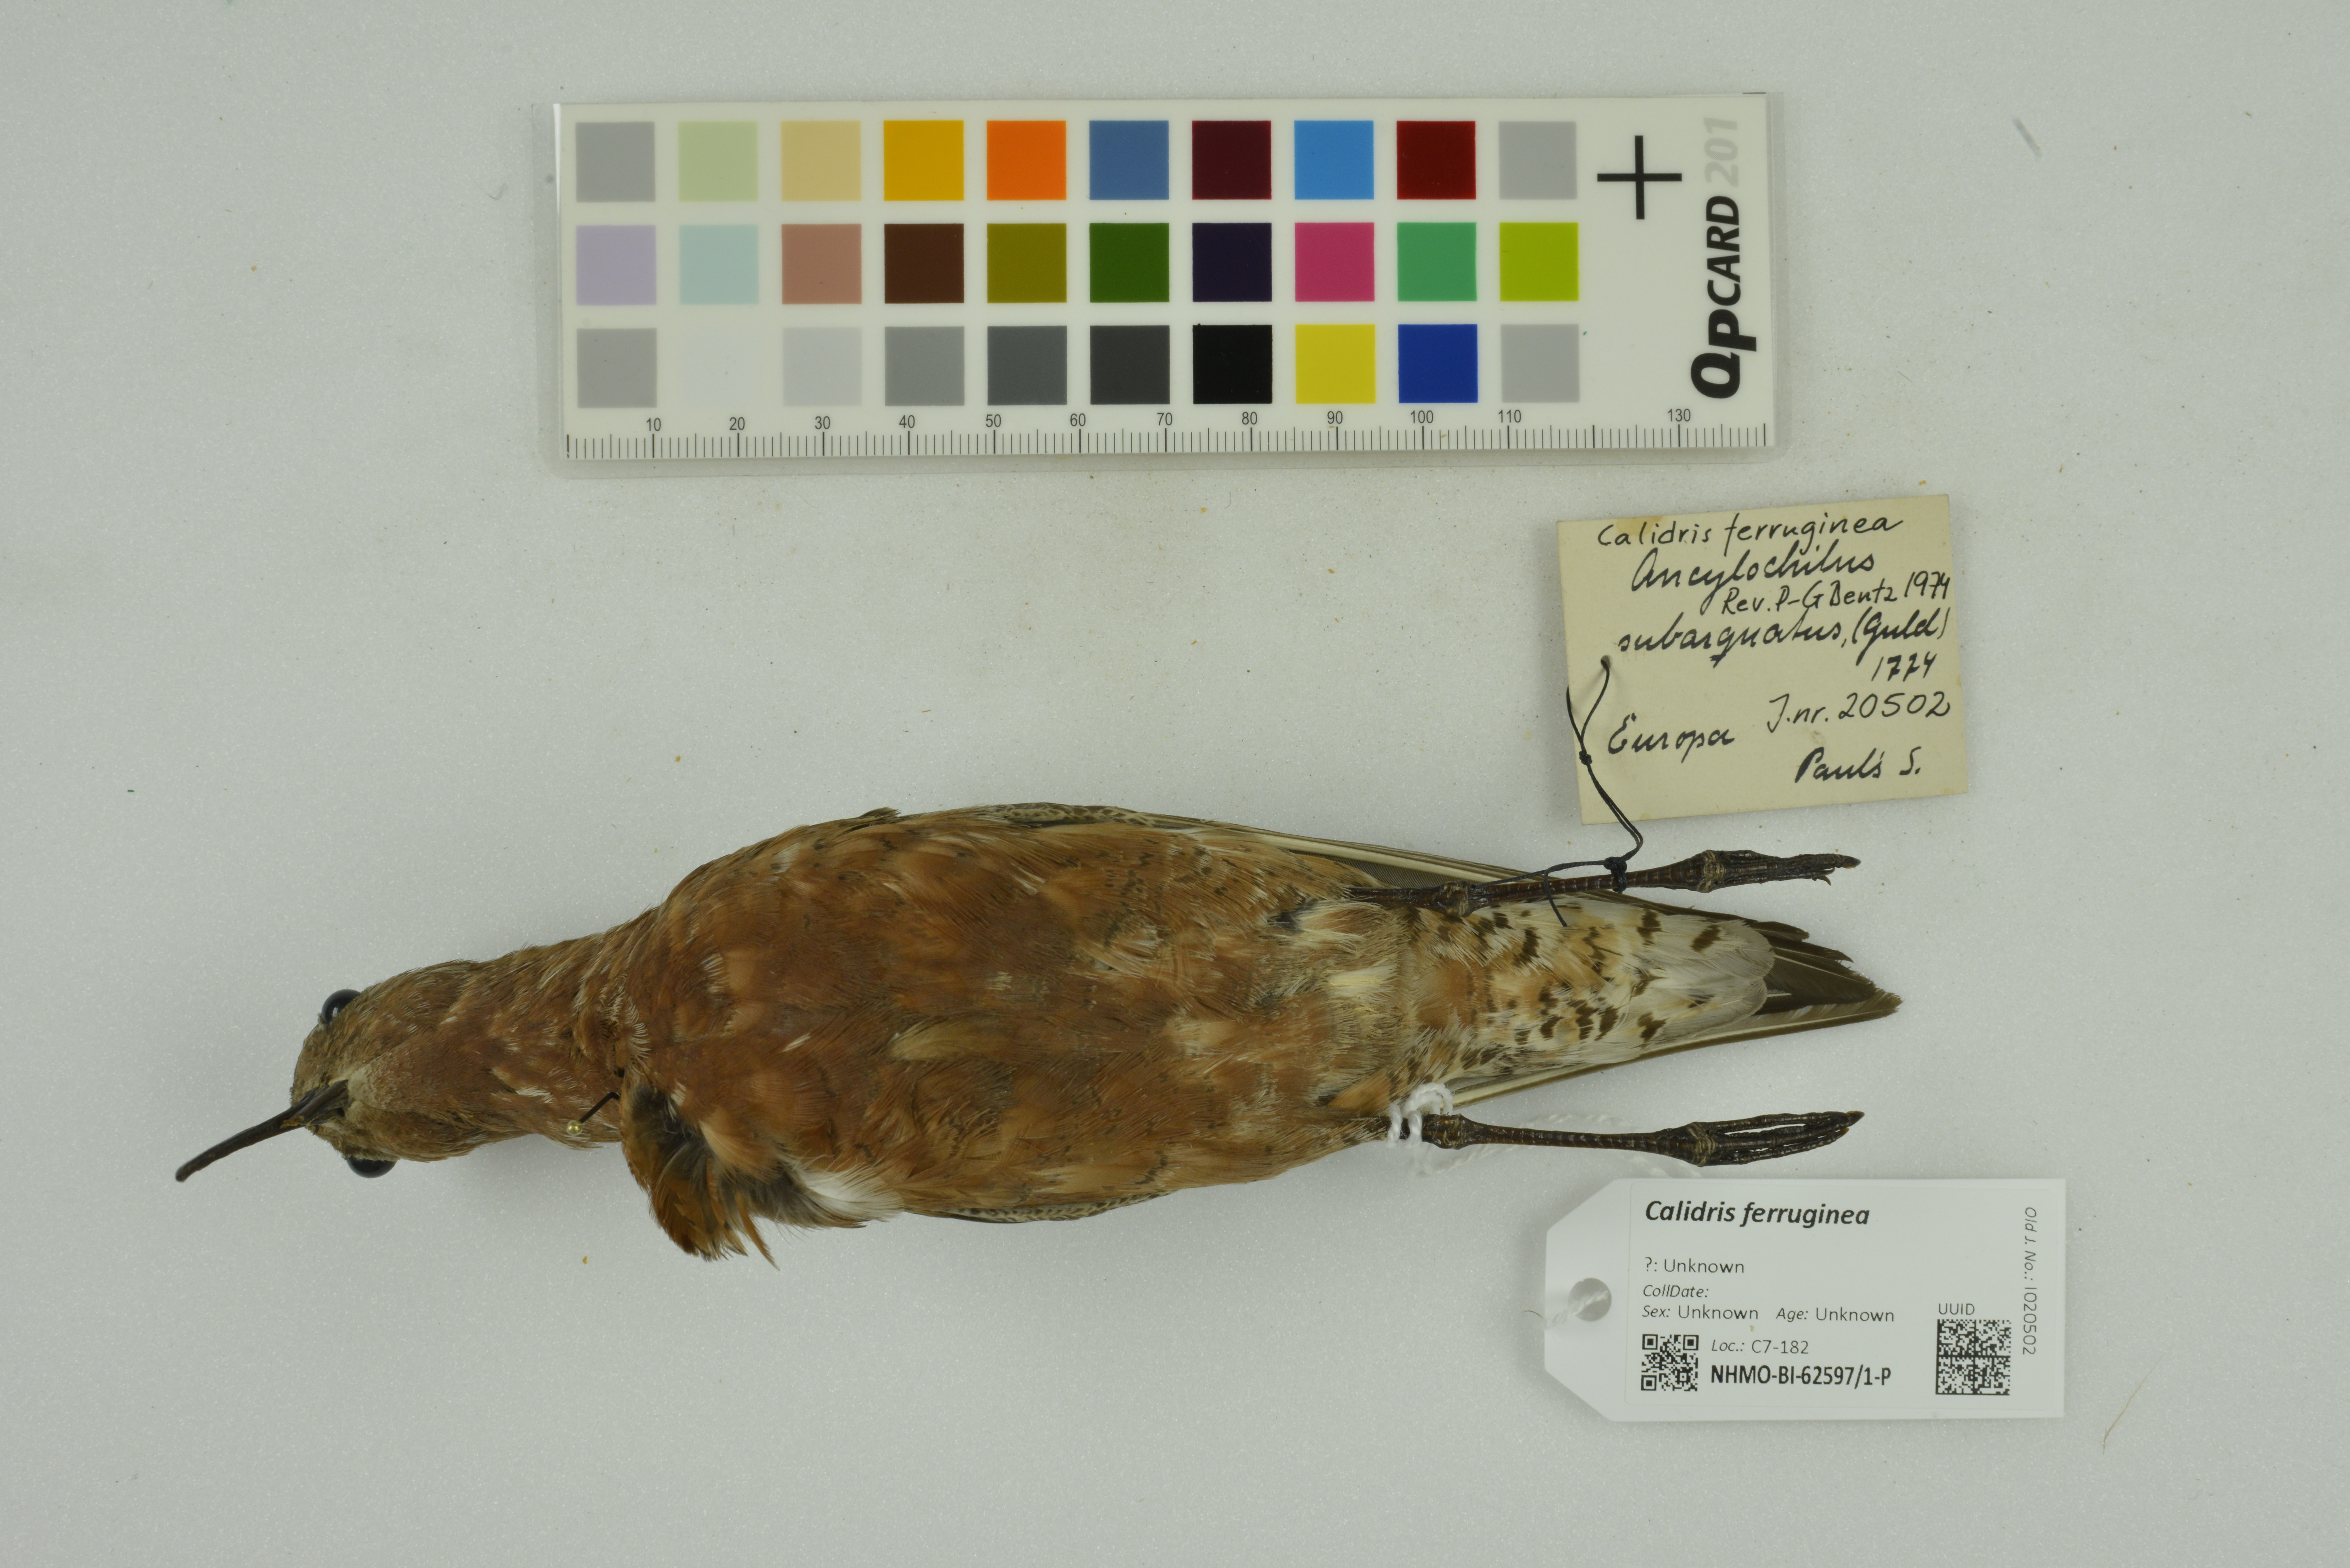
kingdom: Animalia
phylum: Chordata
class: Aves
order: Charadriiformes
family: Scolopacidae
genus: Calidris
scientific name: Calidris ferruginea
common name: Curlew sandpiper
